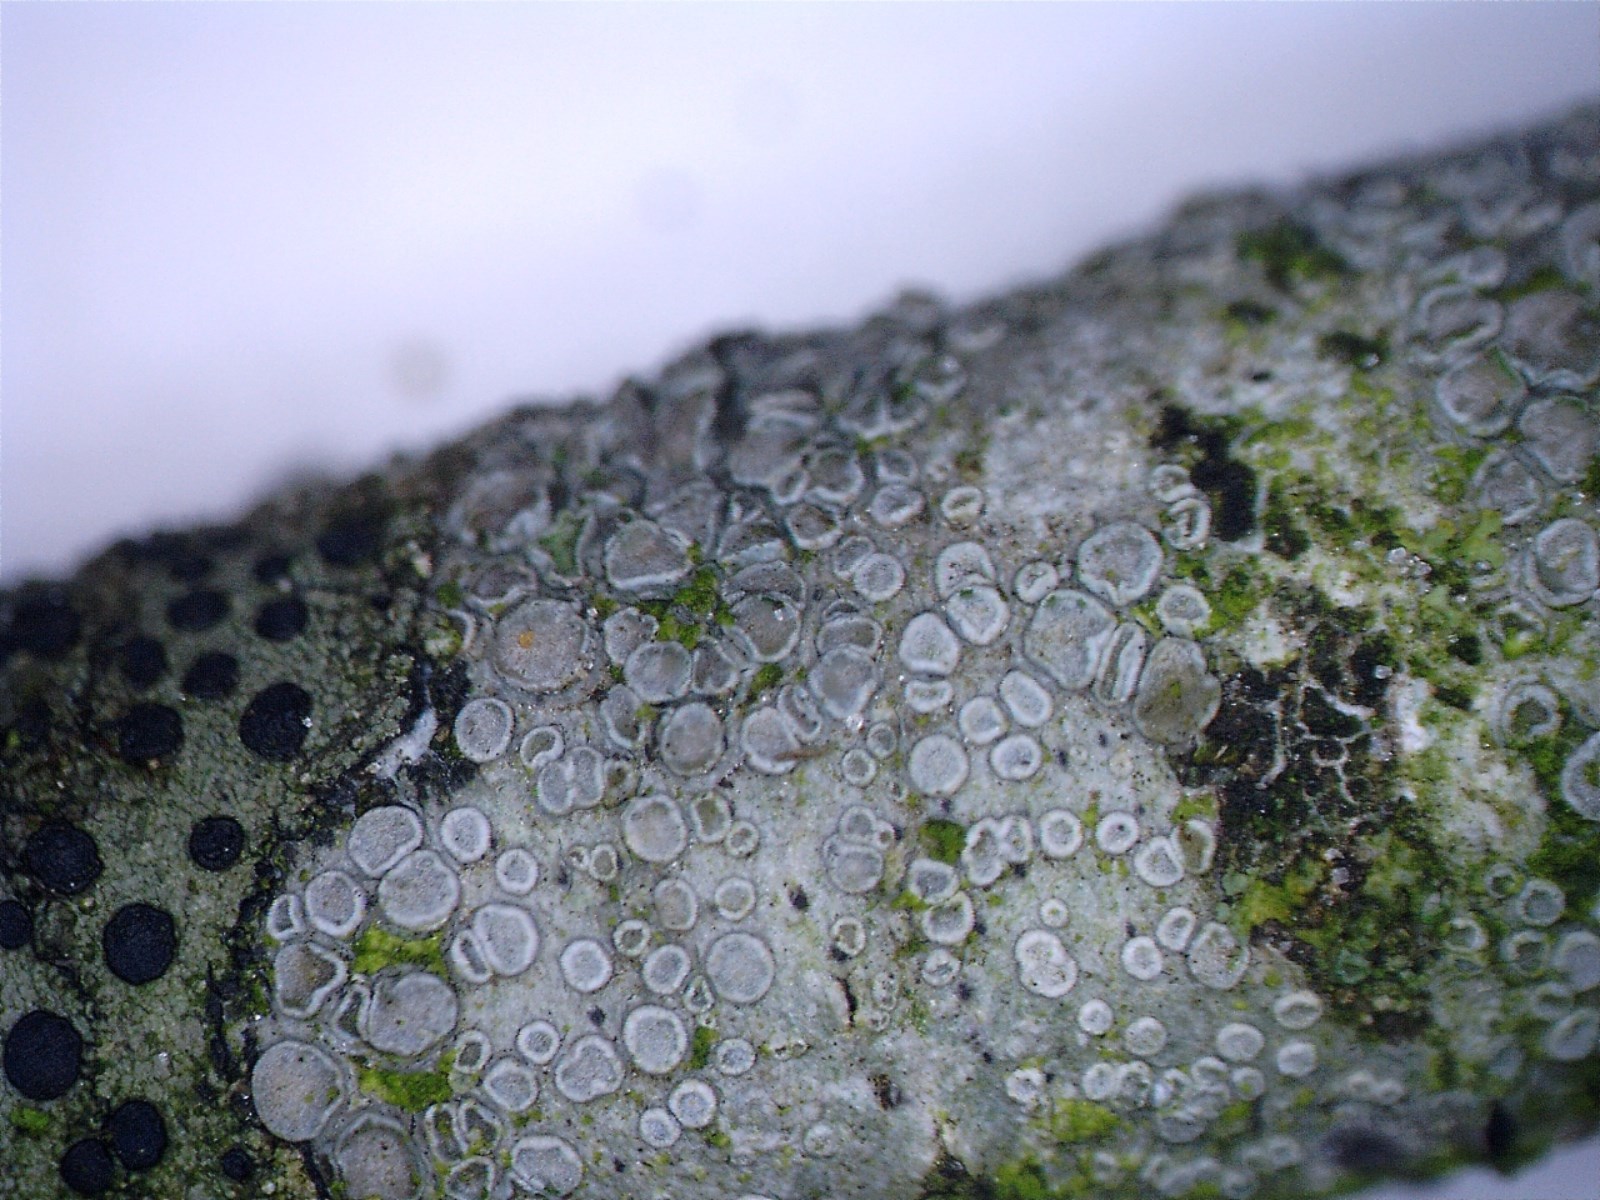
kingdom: Fungi
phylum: Ascomycota
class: Lecanoromycetes
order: Lecanorales
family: Lecanoraceae
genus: Glaucomaria
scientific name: Glaucomaria carpinea
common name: hviddugget kantskivelav
